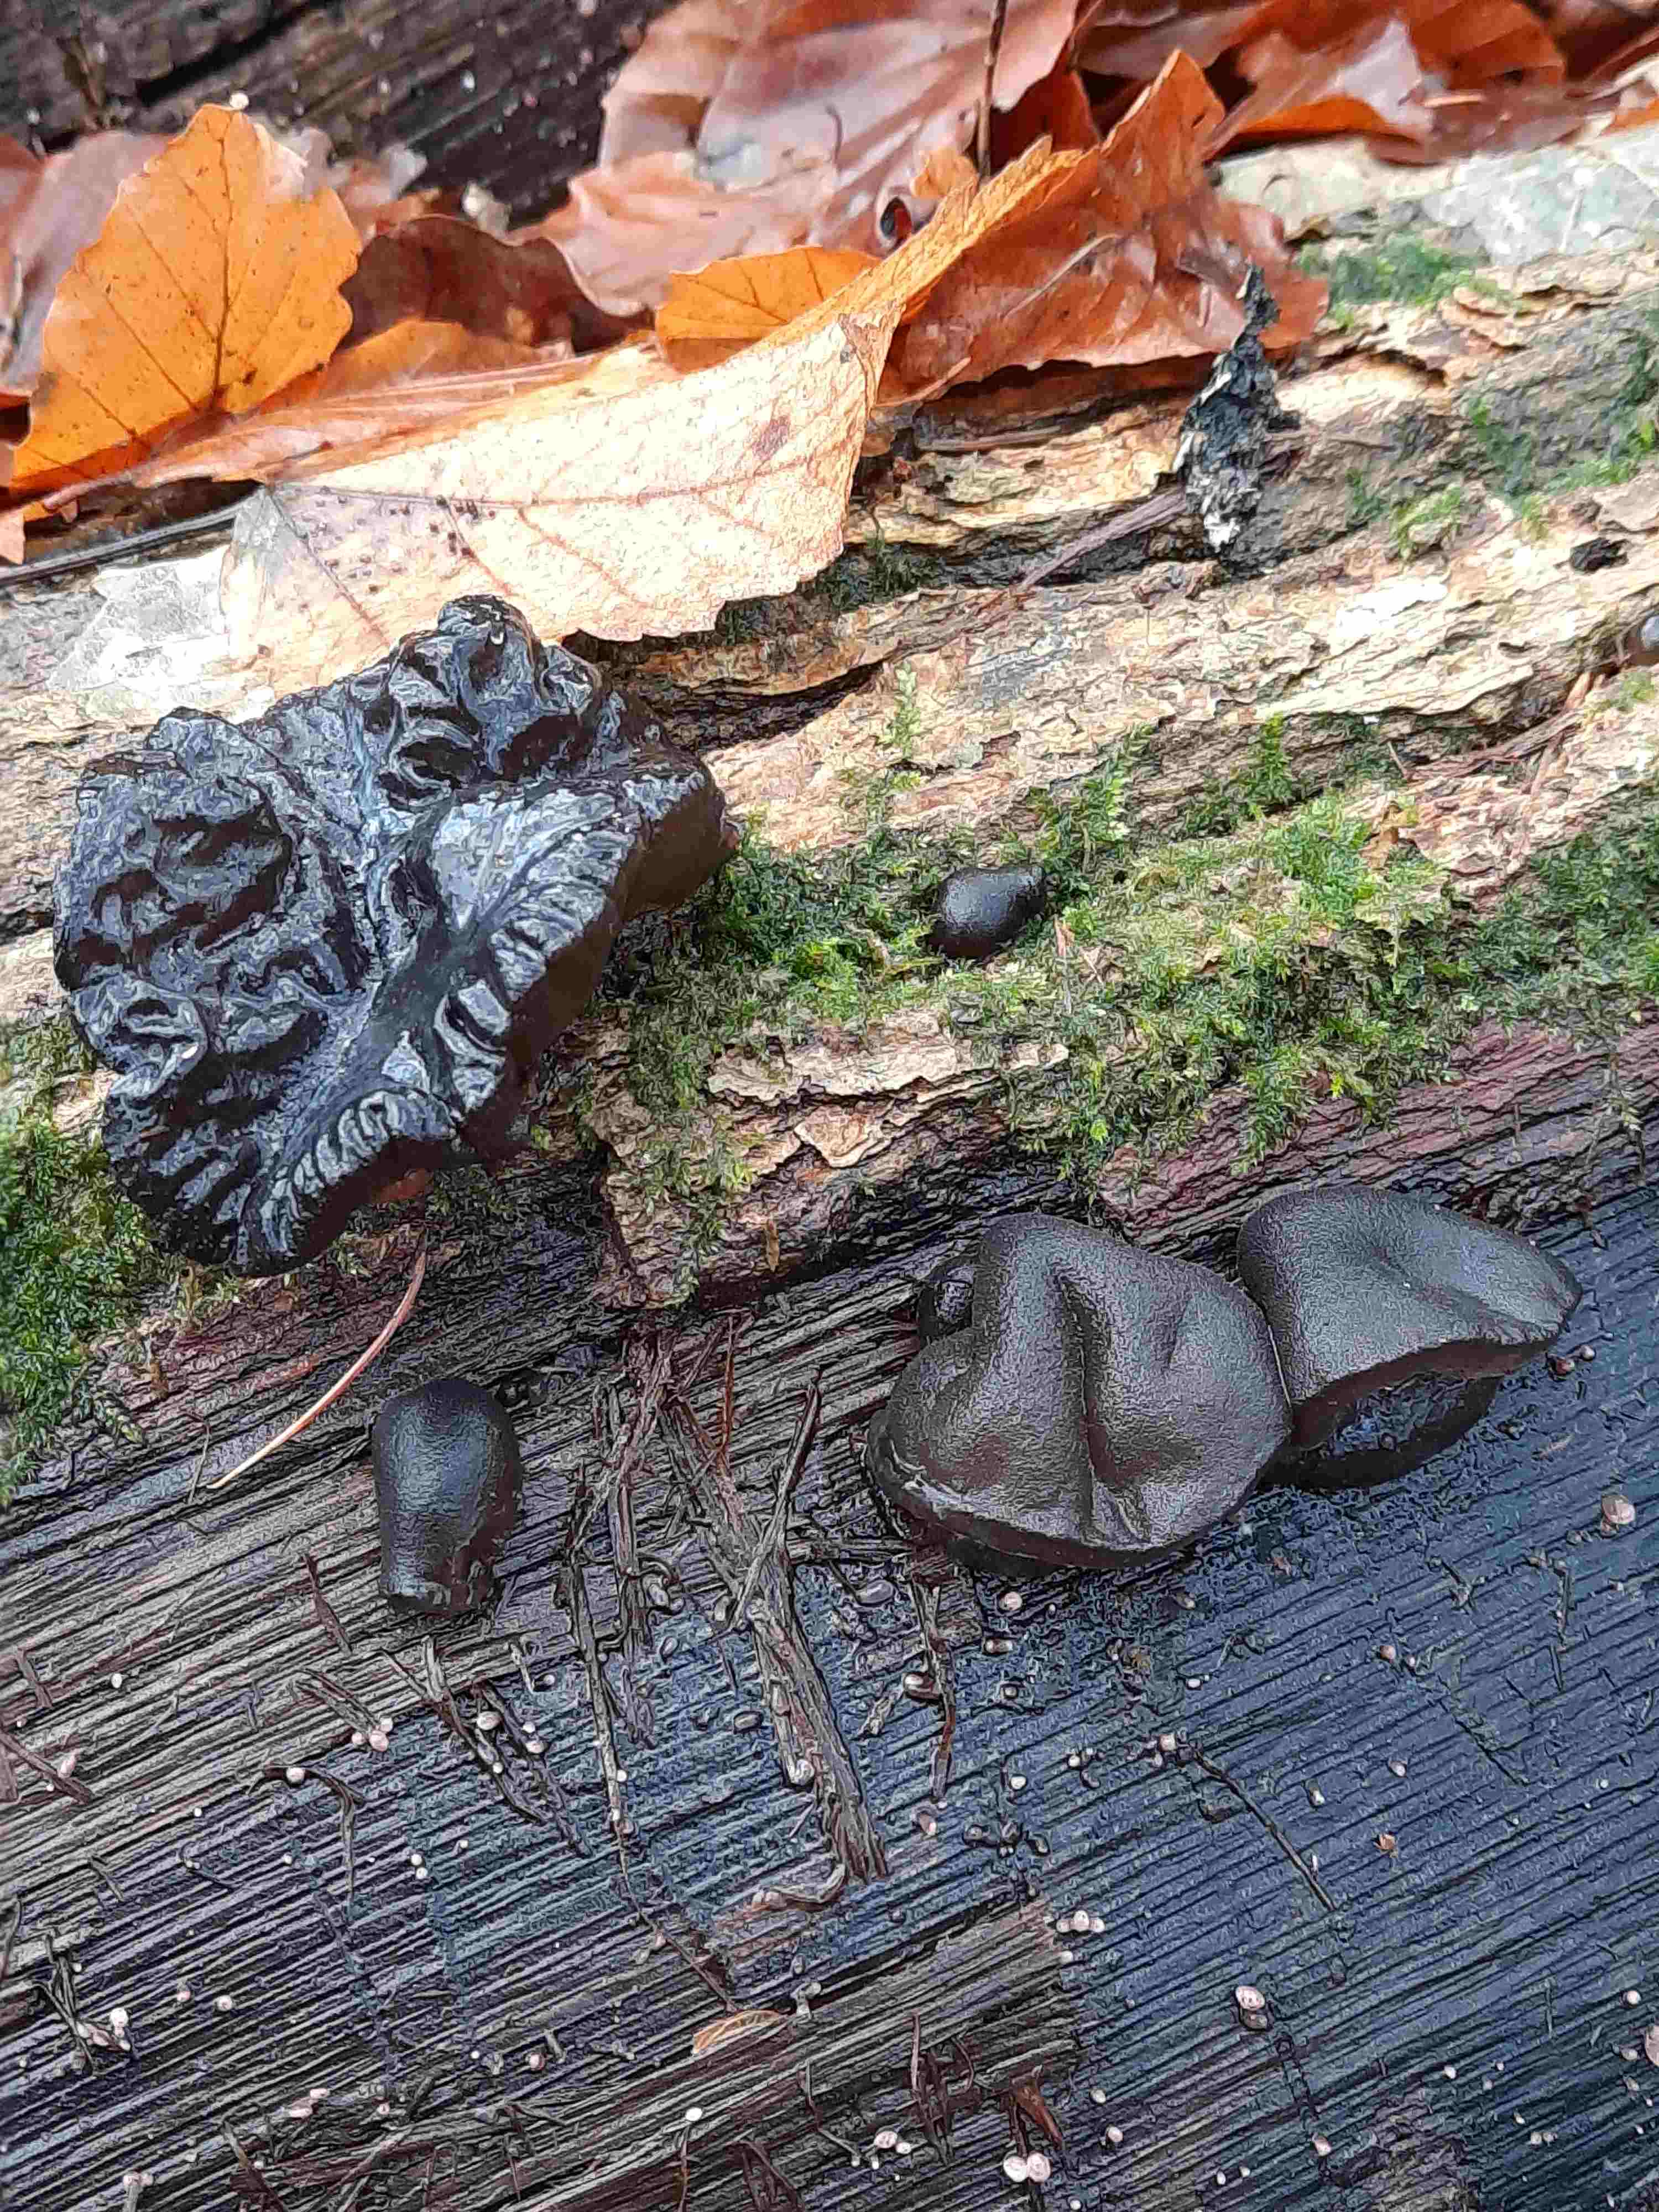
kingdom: Fungi
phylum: Basidiomycota
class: Agaricomycetes
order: Auriculariales
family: Auriculariaceae
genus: Exidia
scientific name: Exidia glandulosa
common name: ege-bævretop
